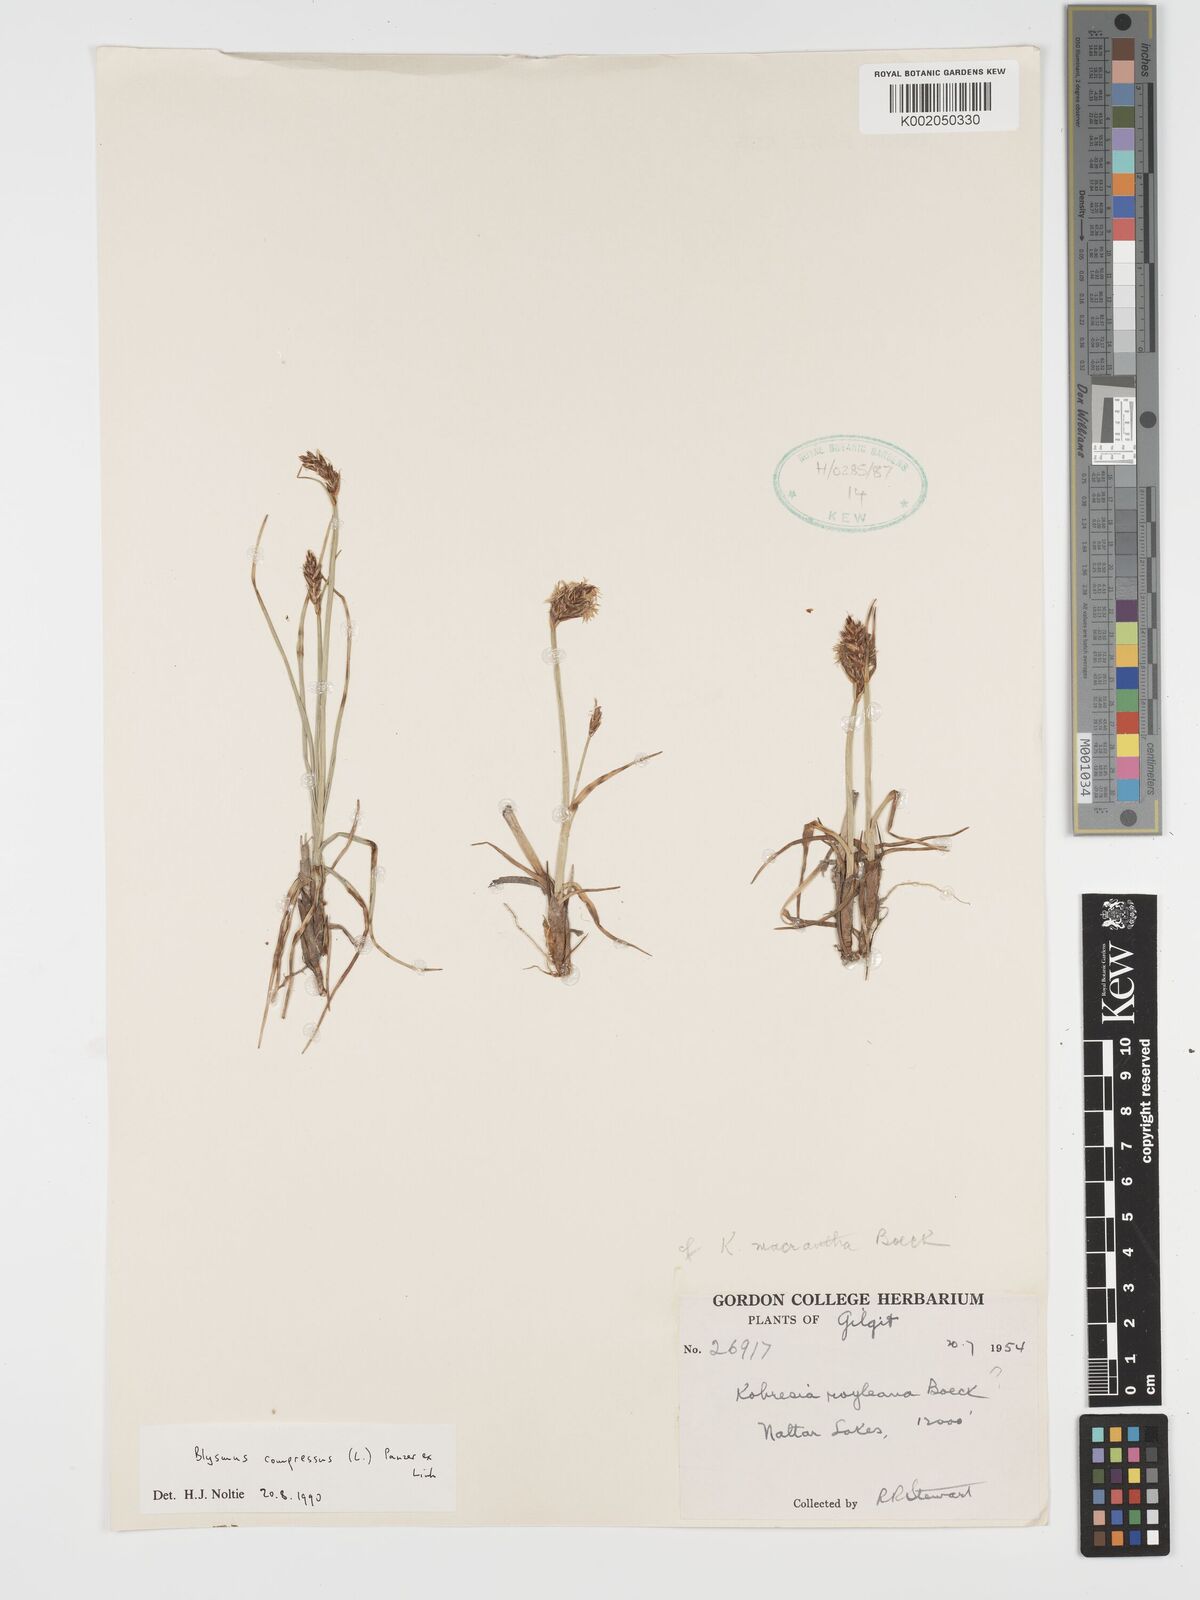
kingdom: Plantae
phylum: Tracheophyta
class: Liliopsida
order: Poales
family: Cyperaceae
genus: Blysmus
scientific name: Blysmus compressus
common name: Flat-sedge
